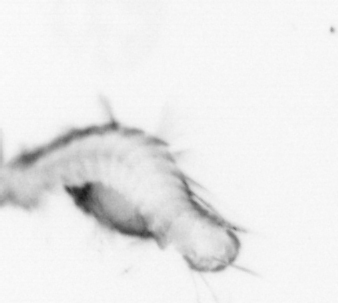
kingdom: Animalia
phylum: Annelida
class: Polychaeta
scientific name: Polychaeta
